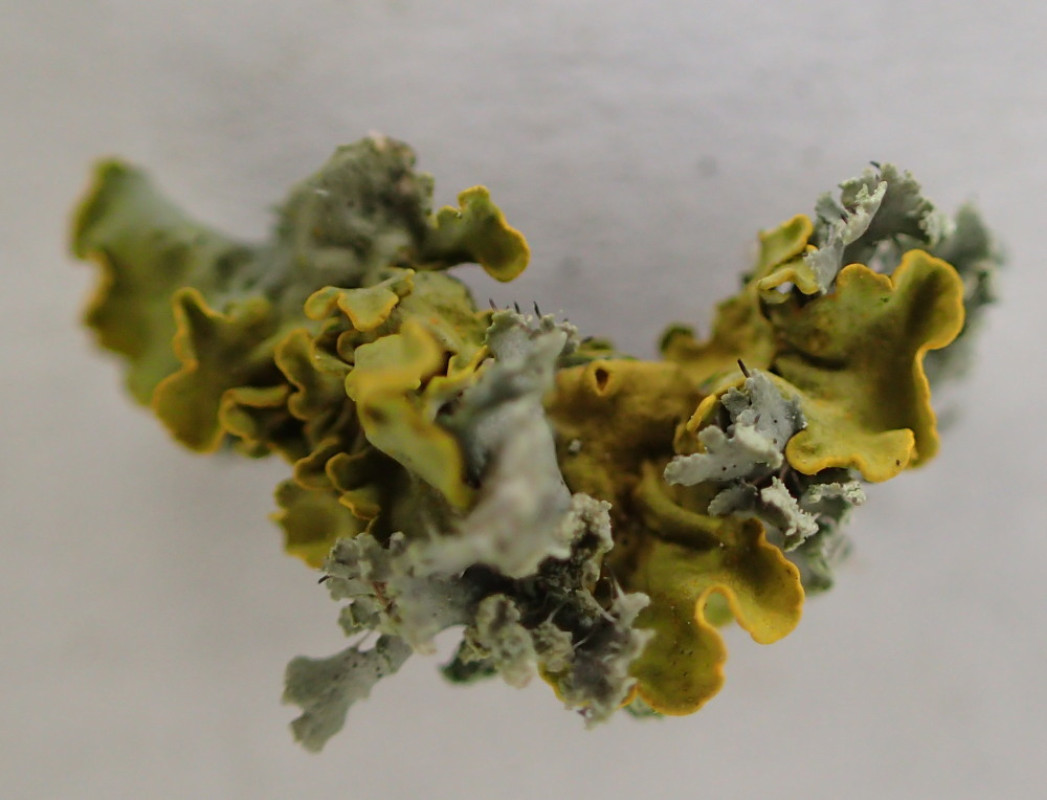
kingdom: Fungi
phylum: Ascomycota
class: Lecanoromycetes
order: Teloschistales
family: Teloschistaceae
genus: Xanthoria
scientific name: Xanthoria parietina
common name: almindelig væggelav
